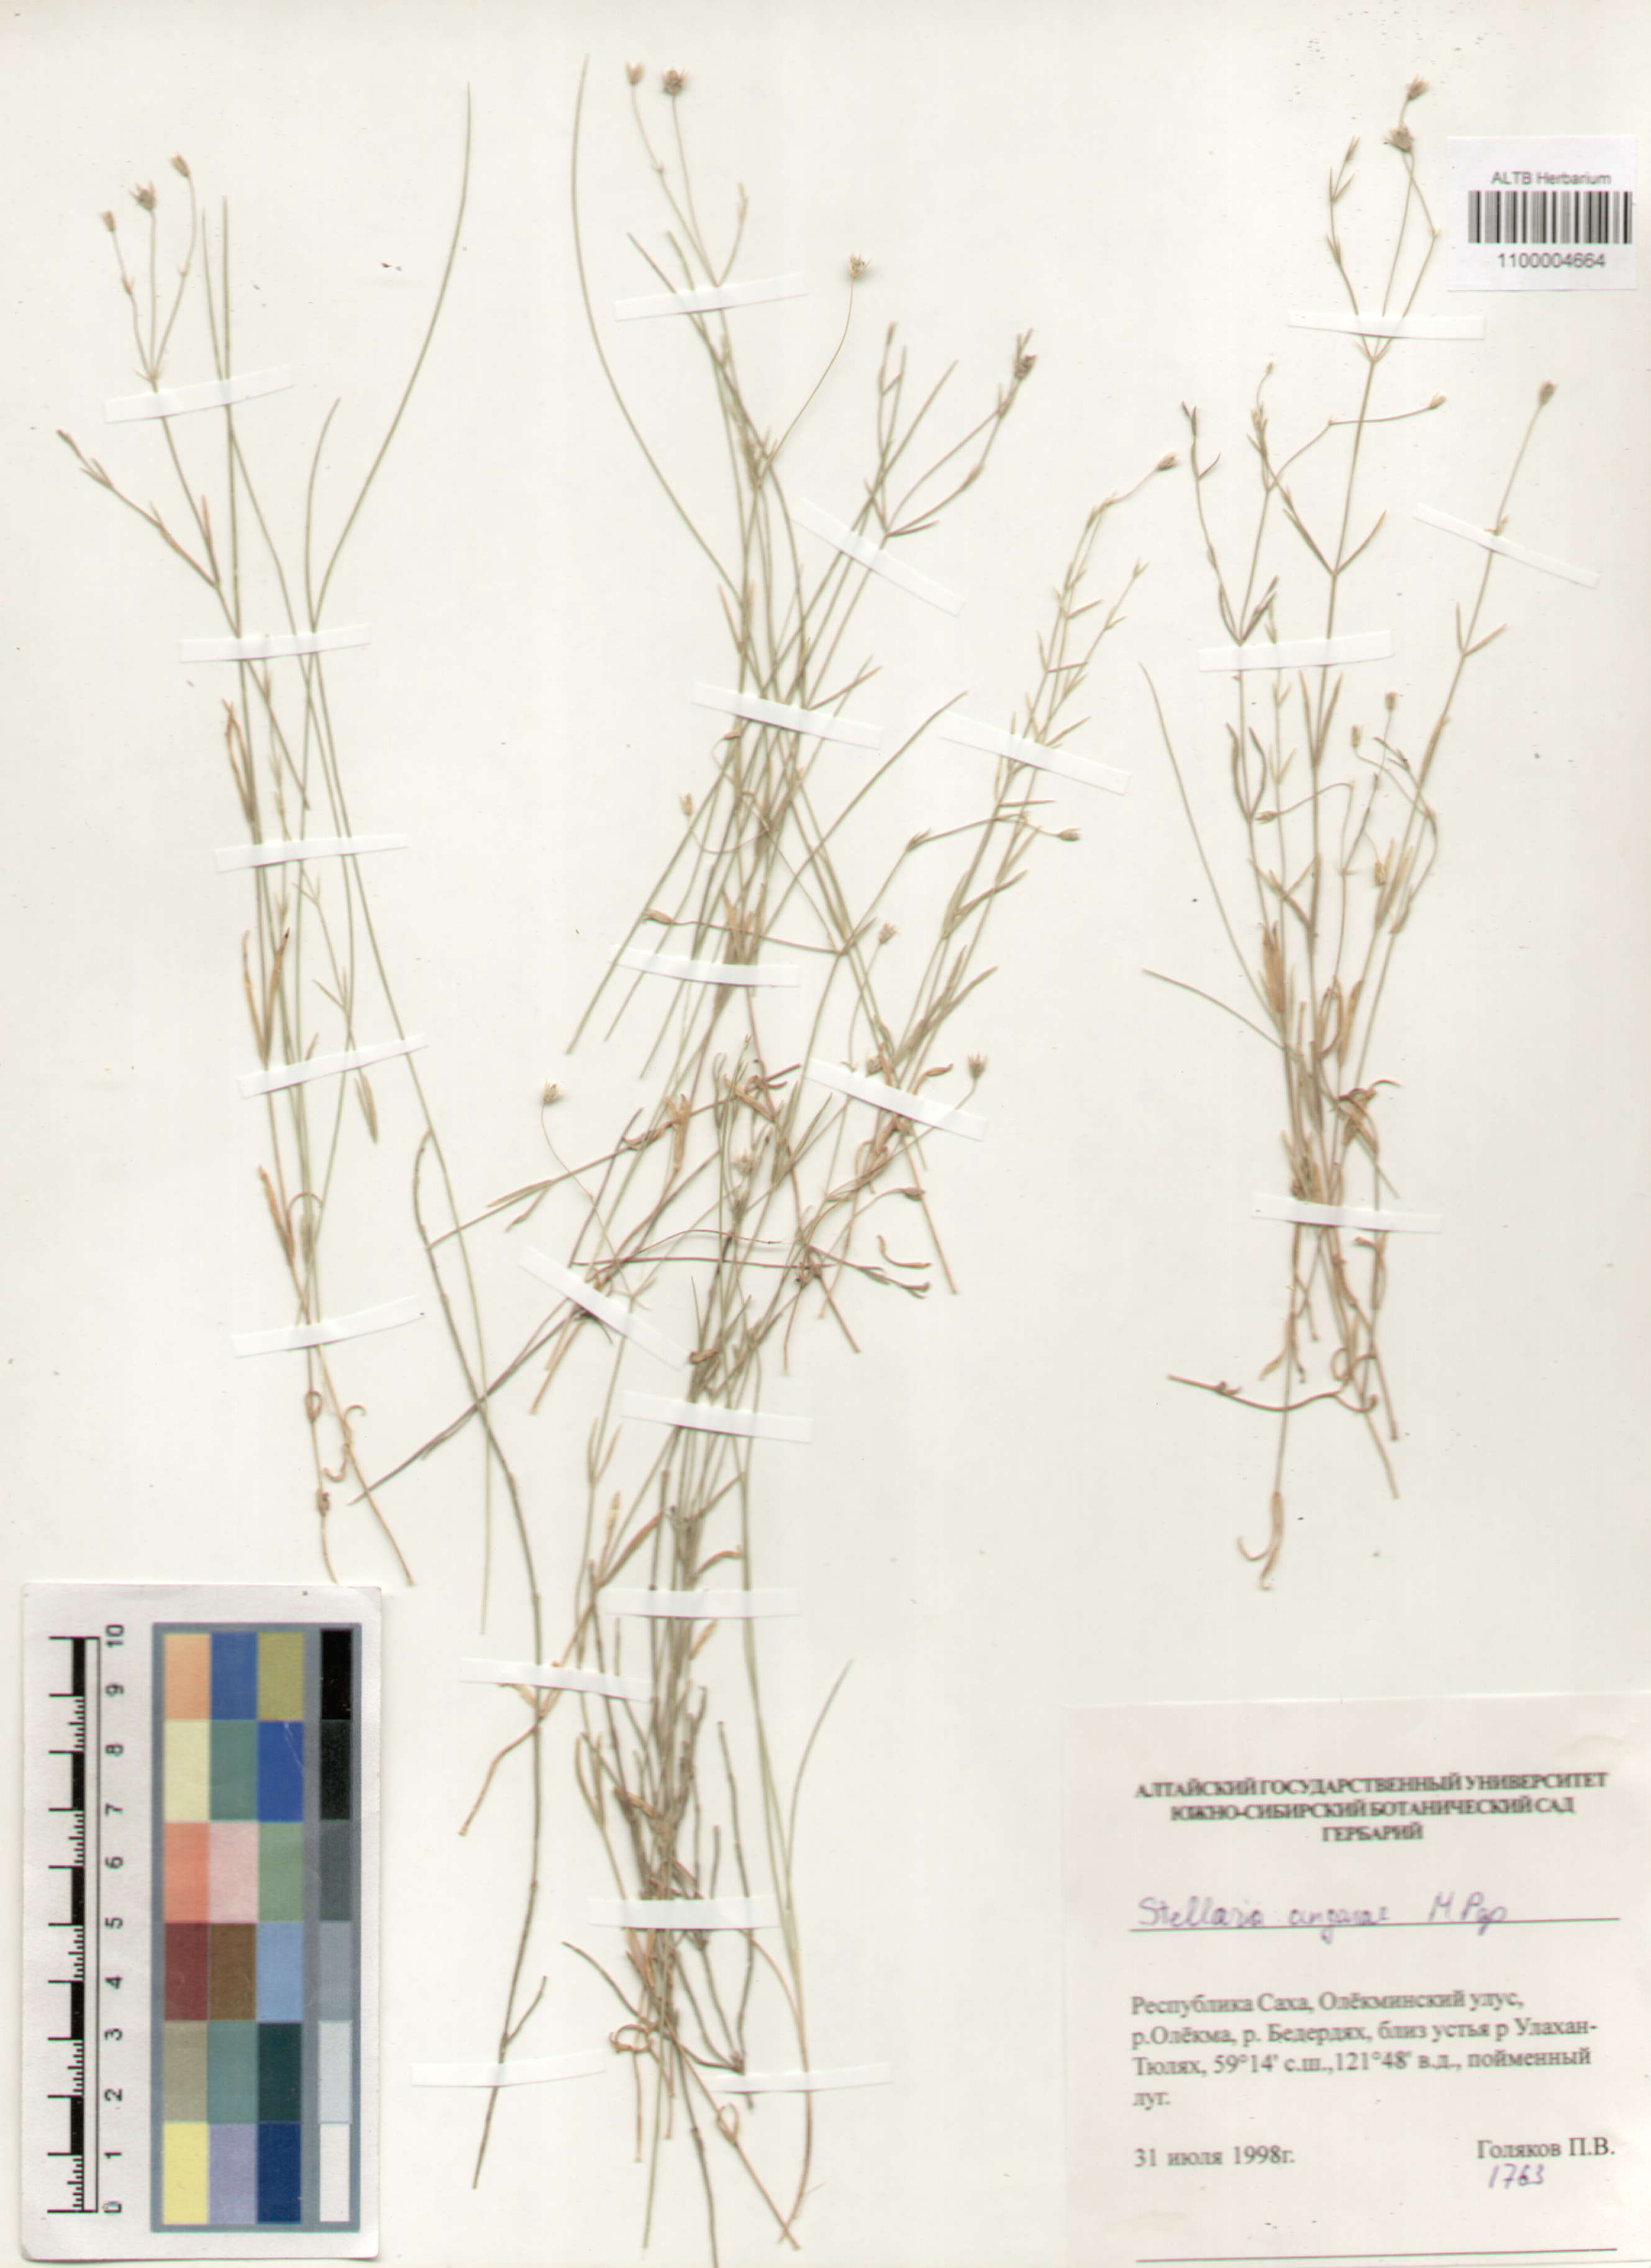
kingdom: Plantae
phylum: Tracheophyta
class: Magnoliopsida
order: Caryophyllales
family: Caryophyllaceae
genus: Stellaria
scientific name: Stellaria angarae
